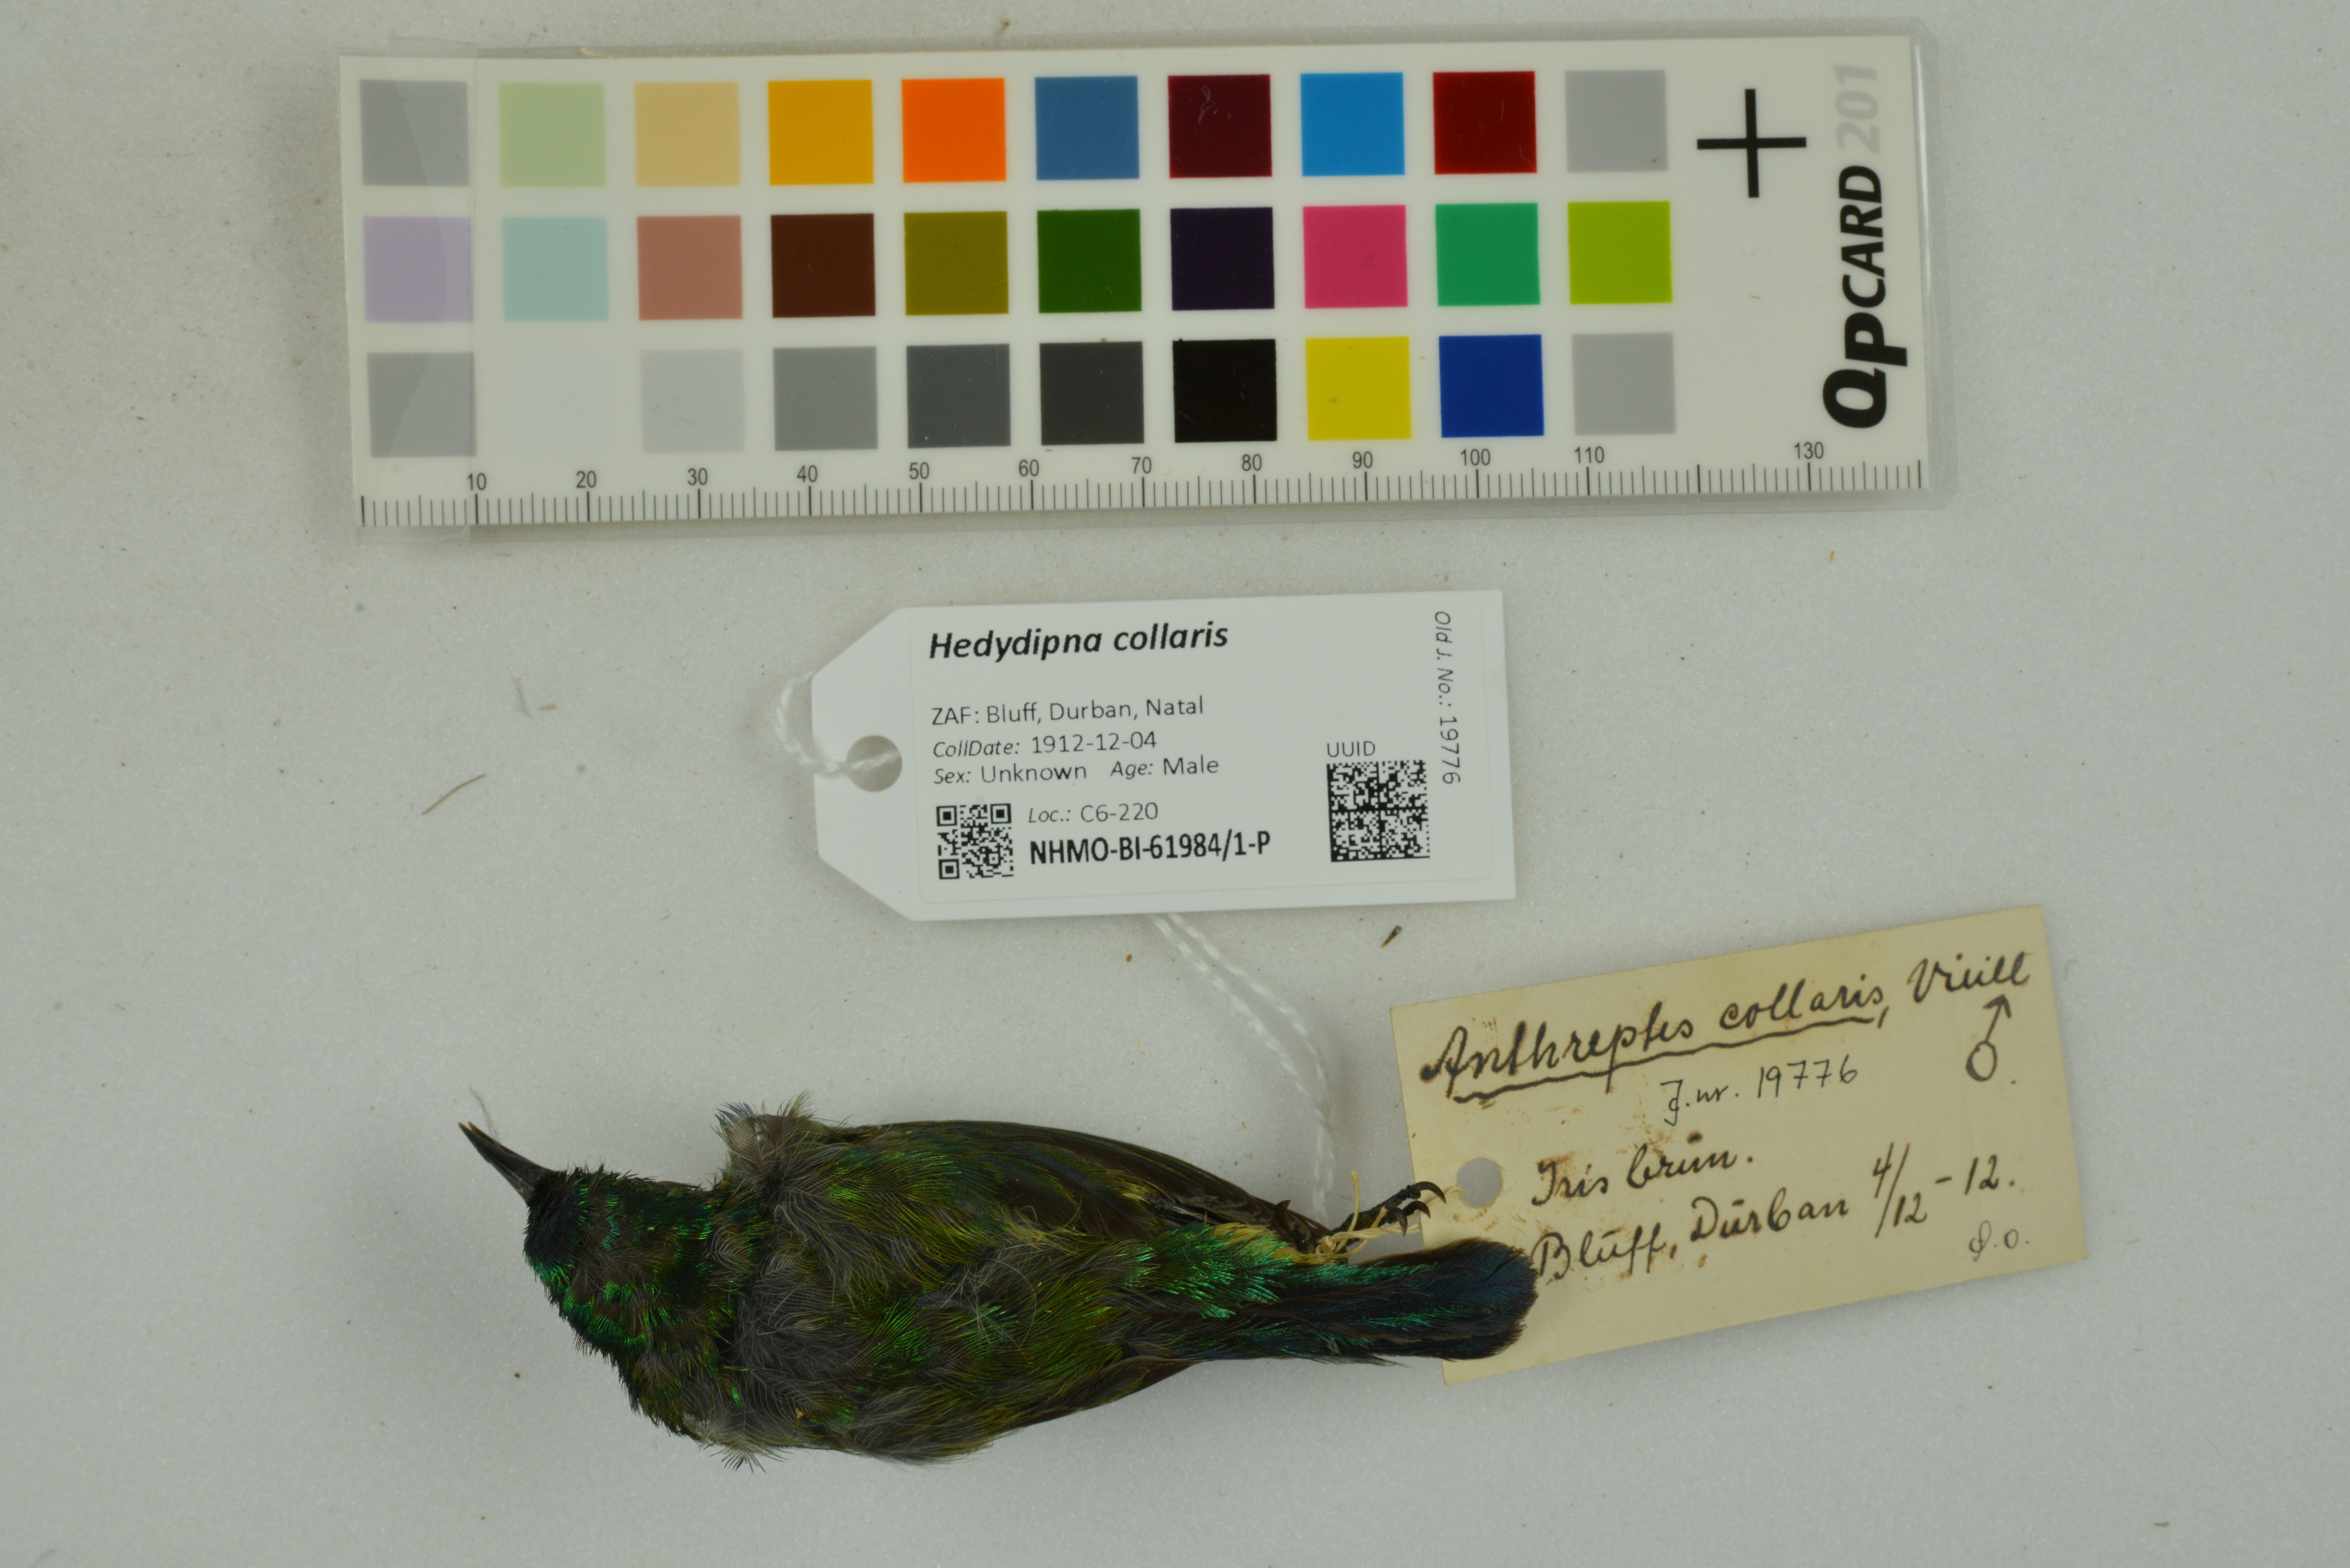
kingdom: Animalia
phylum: Chordata
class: Aves
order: Passeriformes
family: Nectariniidae
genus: Hedydipna
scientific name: Hedydipna collaris
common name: Collared sunbird
